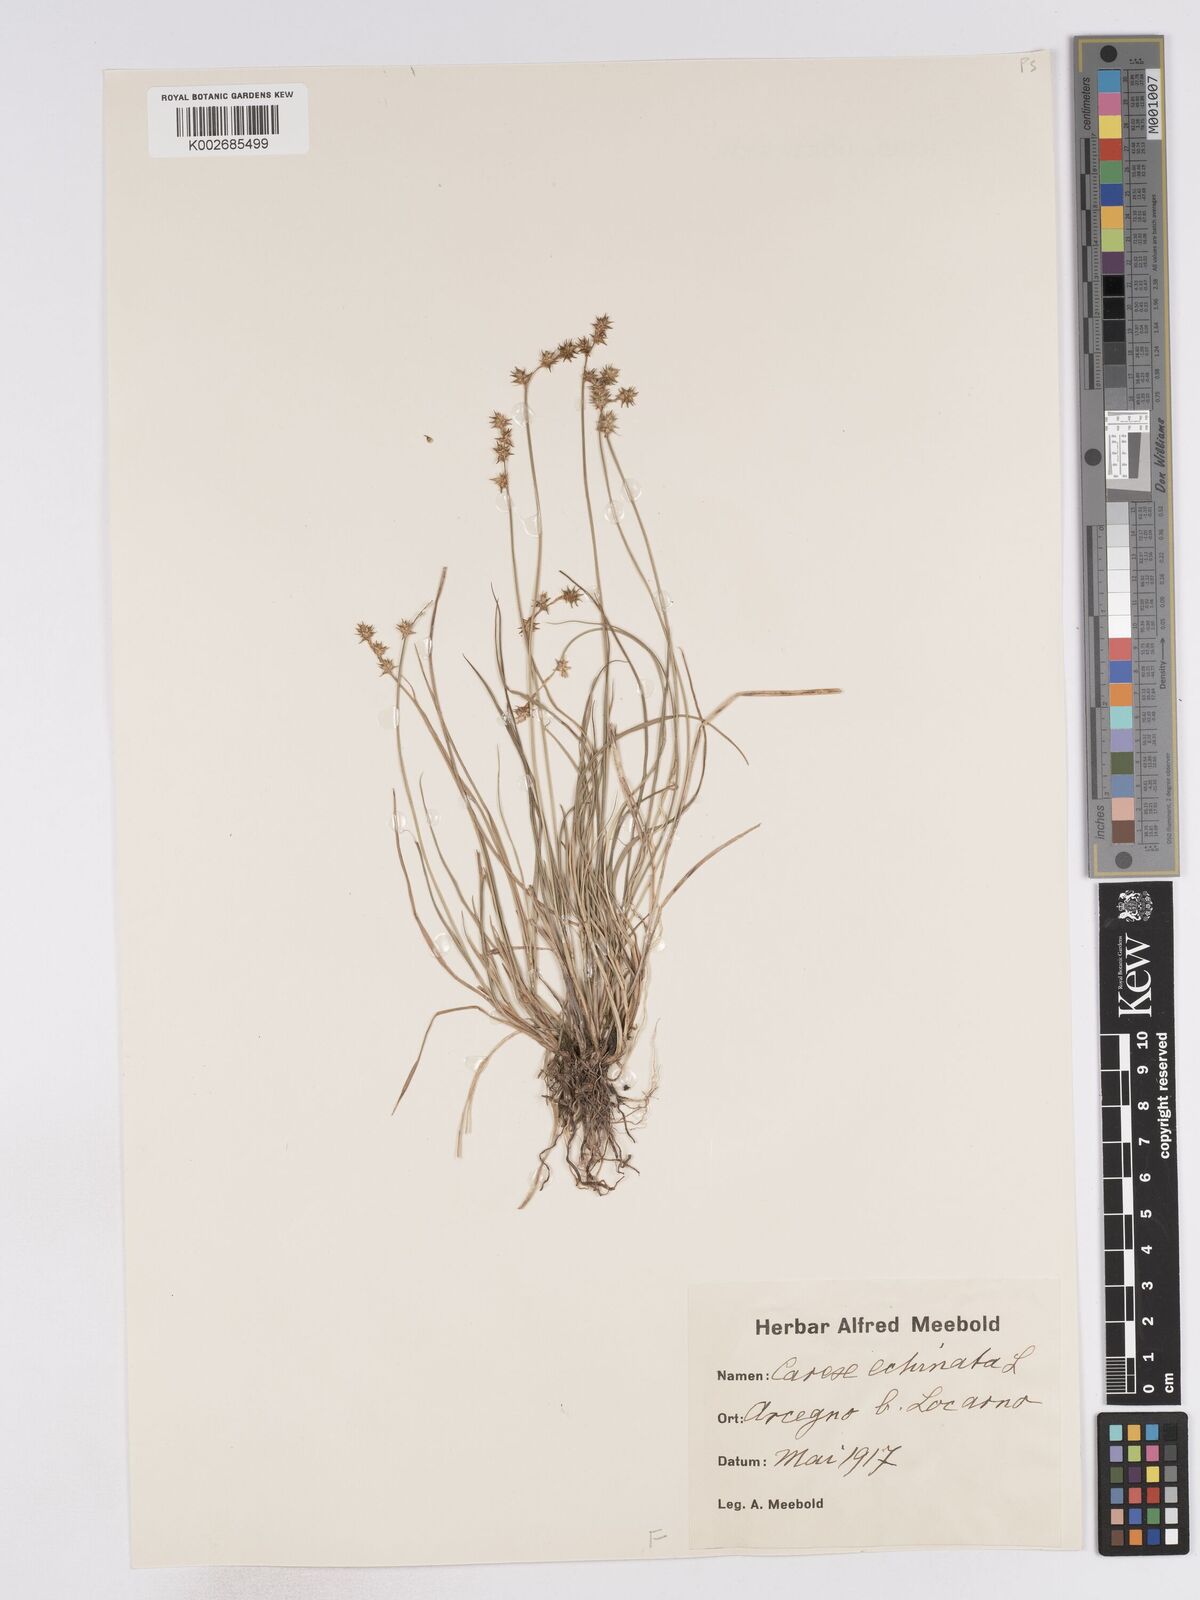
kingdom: Plantae
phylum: Tracheophyta
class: Liliopsida
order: Poales
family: Cyperaceae
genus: Carex
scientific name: Carex echinata
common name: Star sedge
